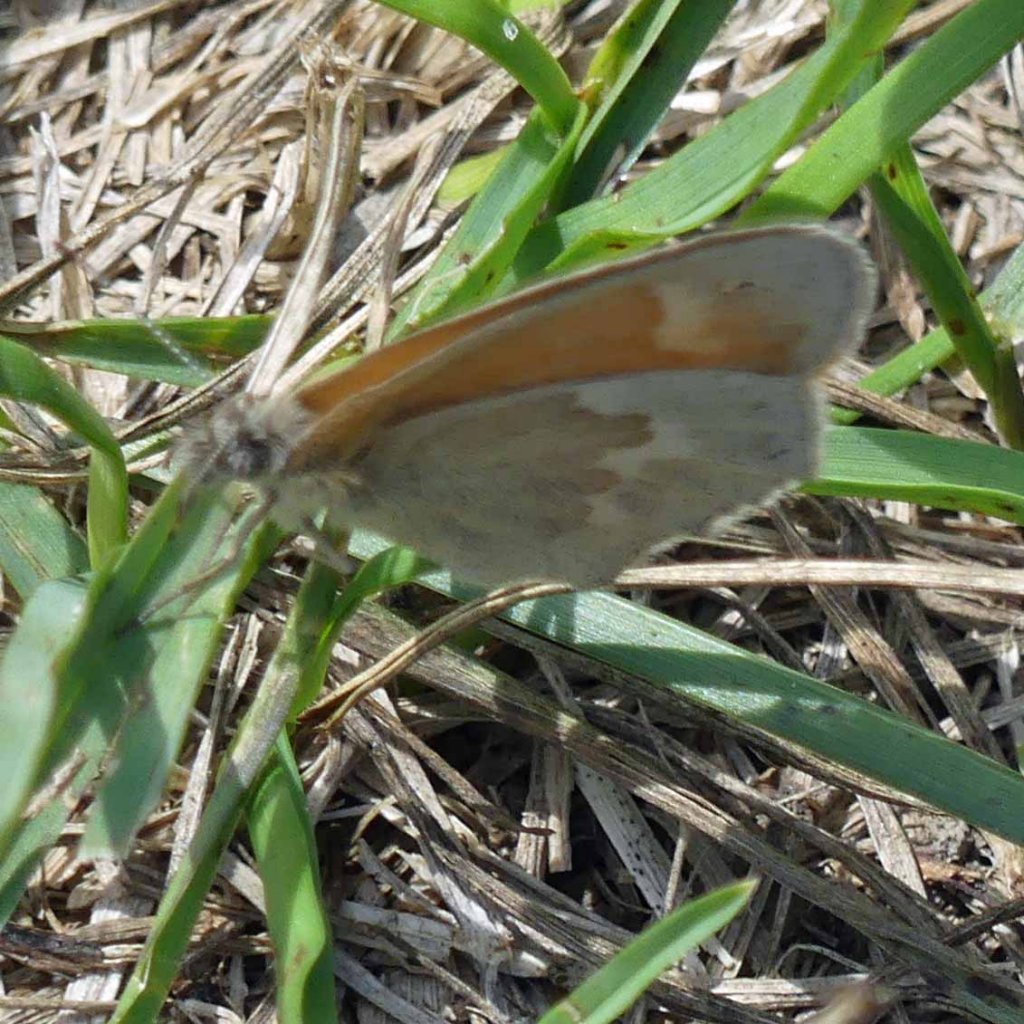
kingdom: Animalia
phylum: Arthropoda
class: Insecta
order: Lepidoptera
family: Nymphalidae
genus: Coenonympha
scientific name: Coenonympha tullia
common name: Large Heath
